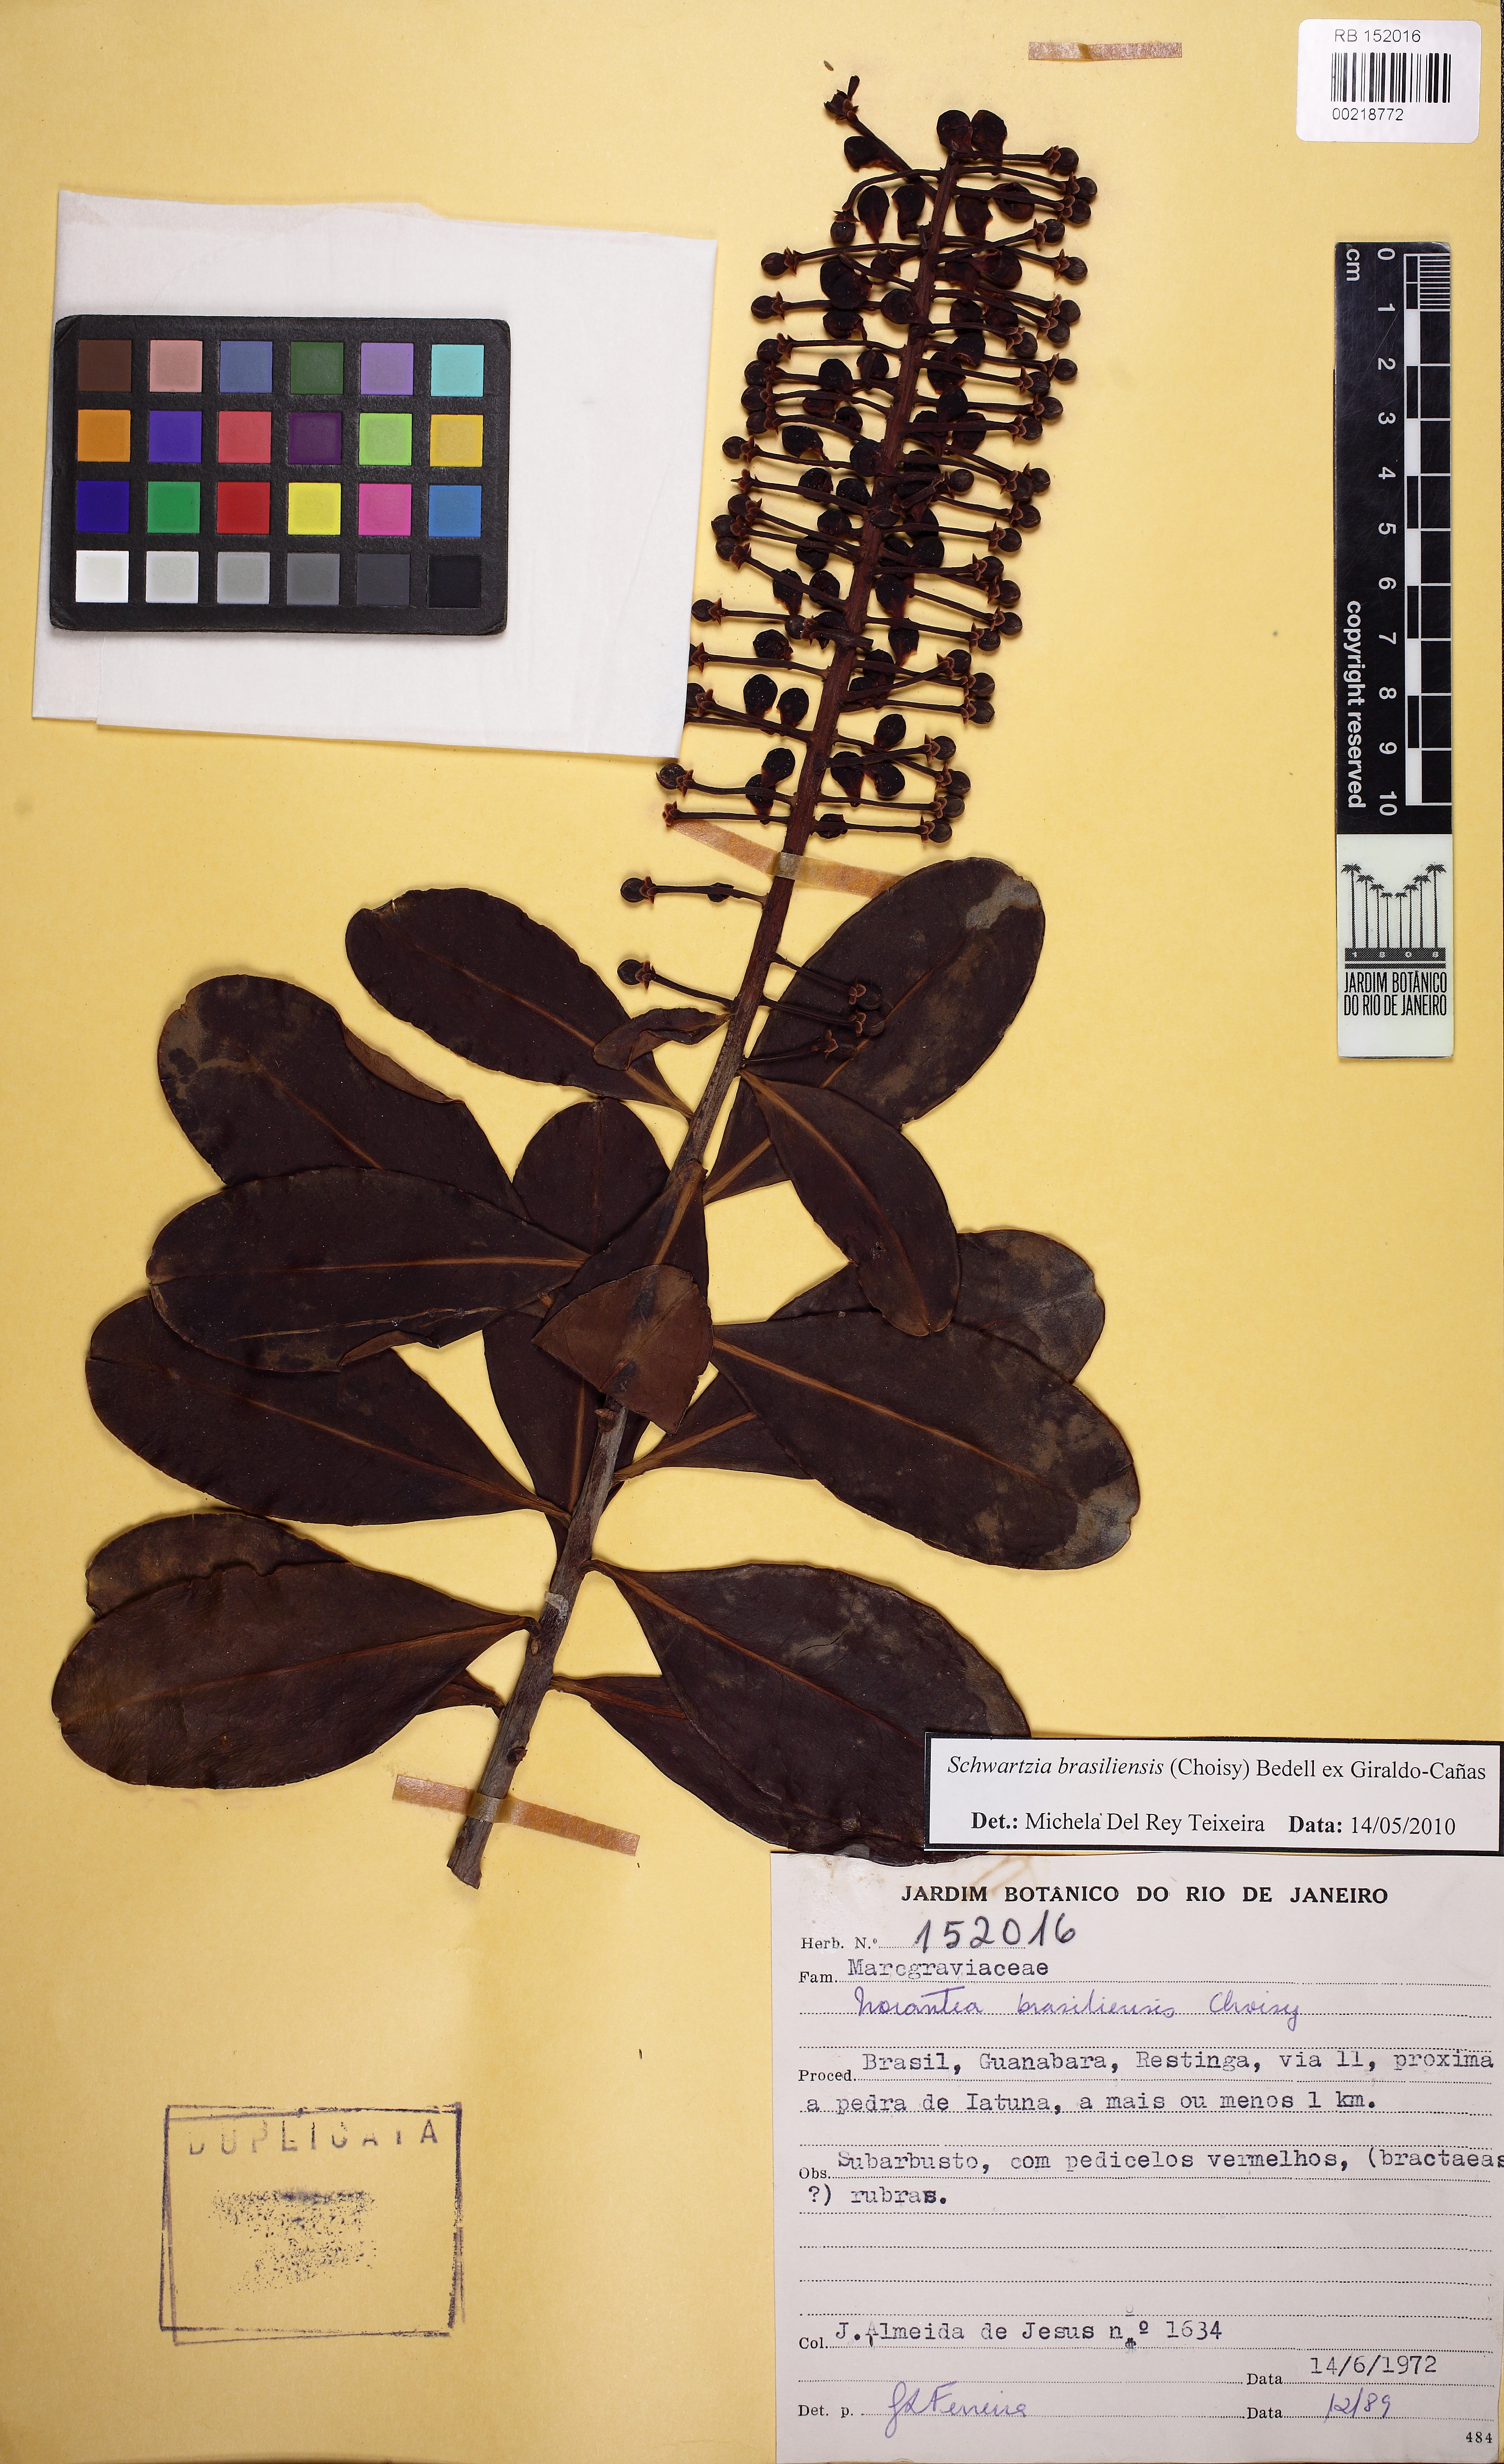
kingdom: Plantae
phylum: Tracheophyta
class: Magnoliopsida
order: Ericales
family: Marcgraviaceae
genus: Schwartzia
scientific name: Schwartzia brasiliensis
